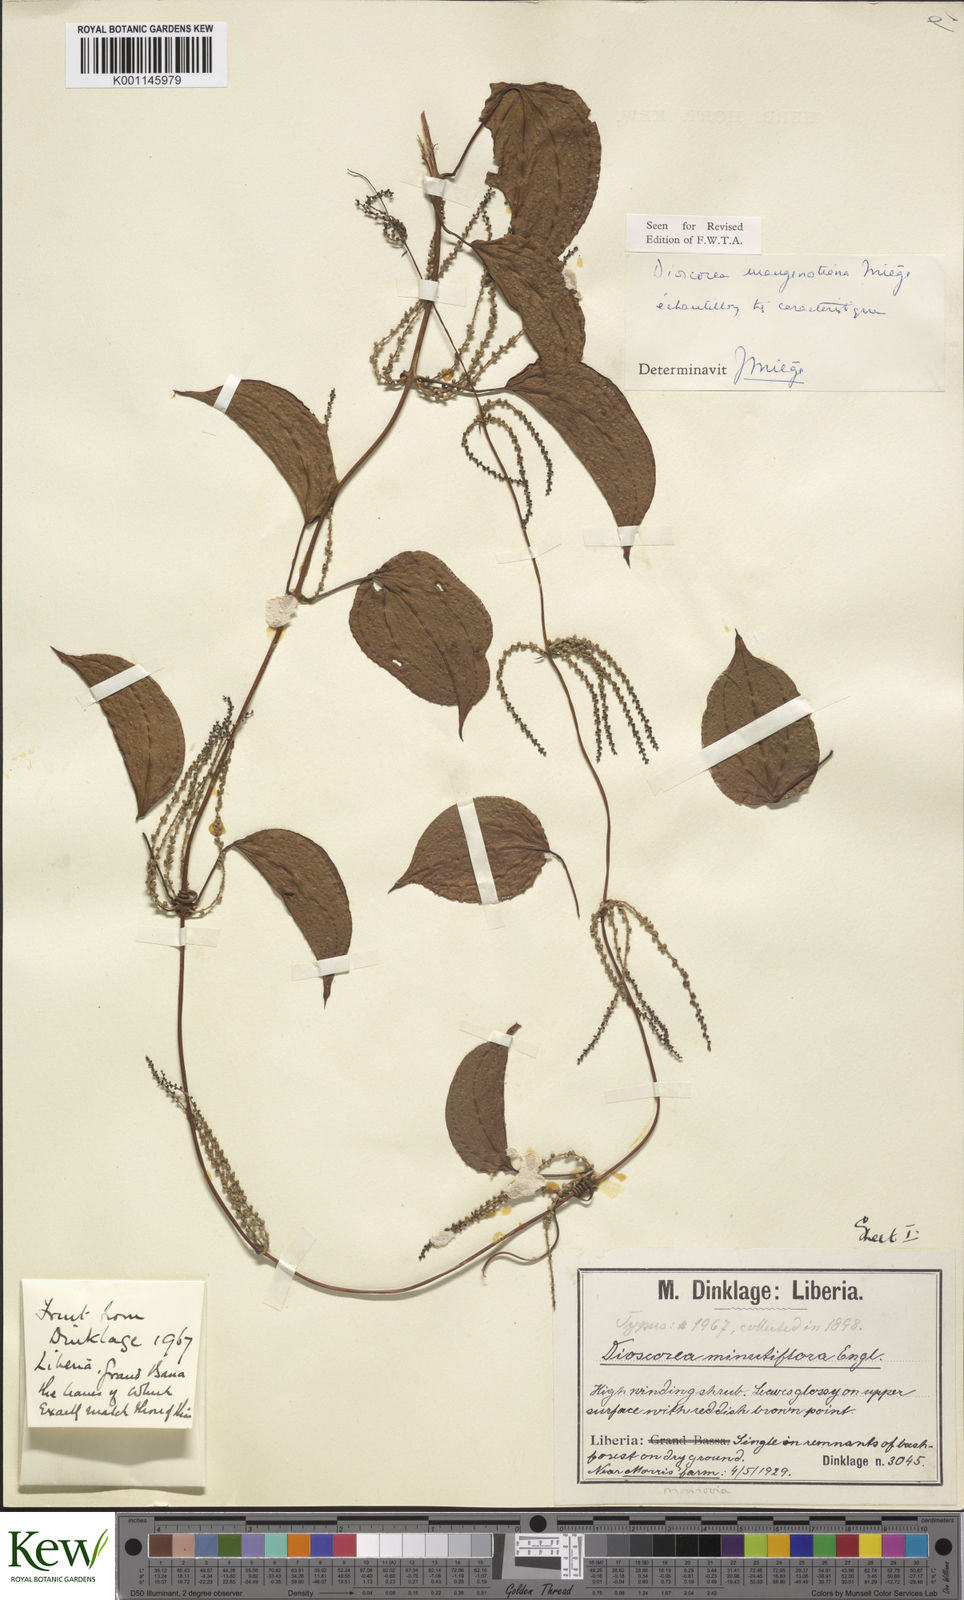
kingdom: Plantae
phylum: Tracheophyta
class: Liliopsida
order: Dioscoreales
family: Dioscoreaceae
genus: Dioscorea
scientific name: Dioscorea
